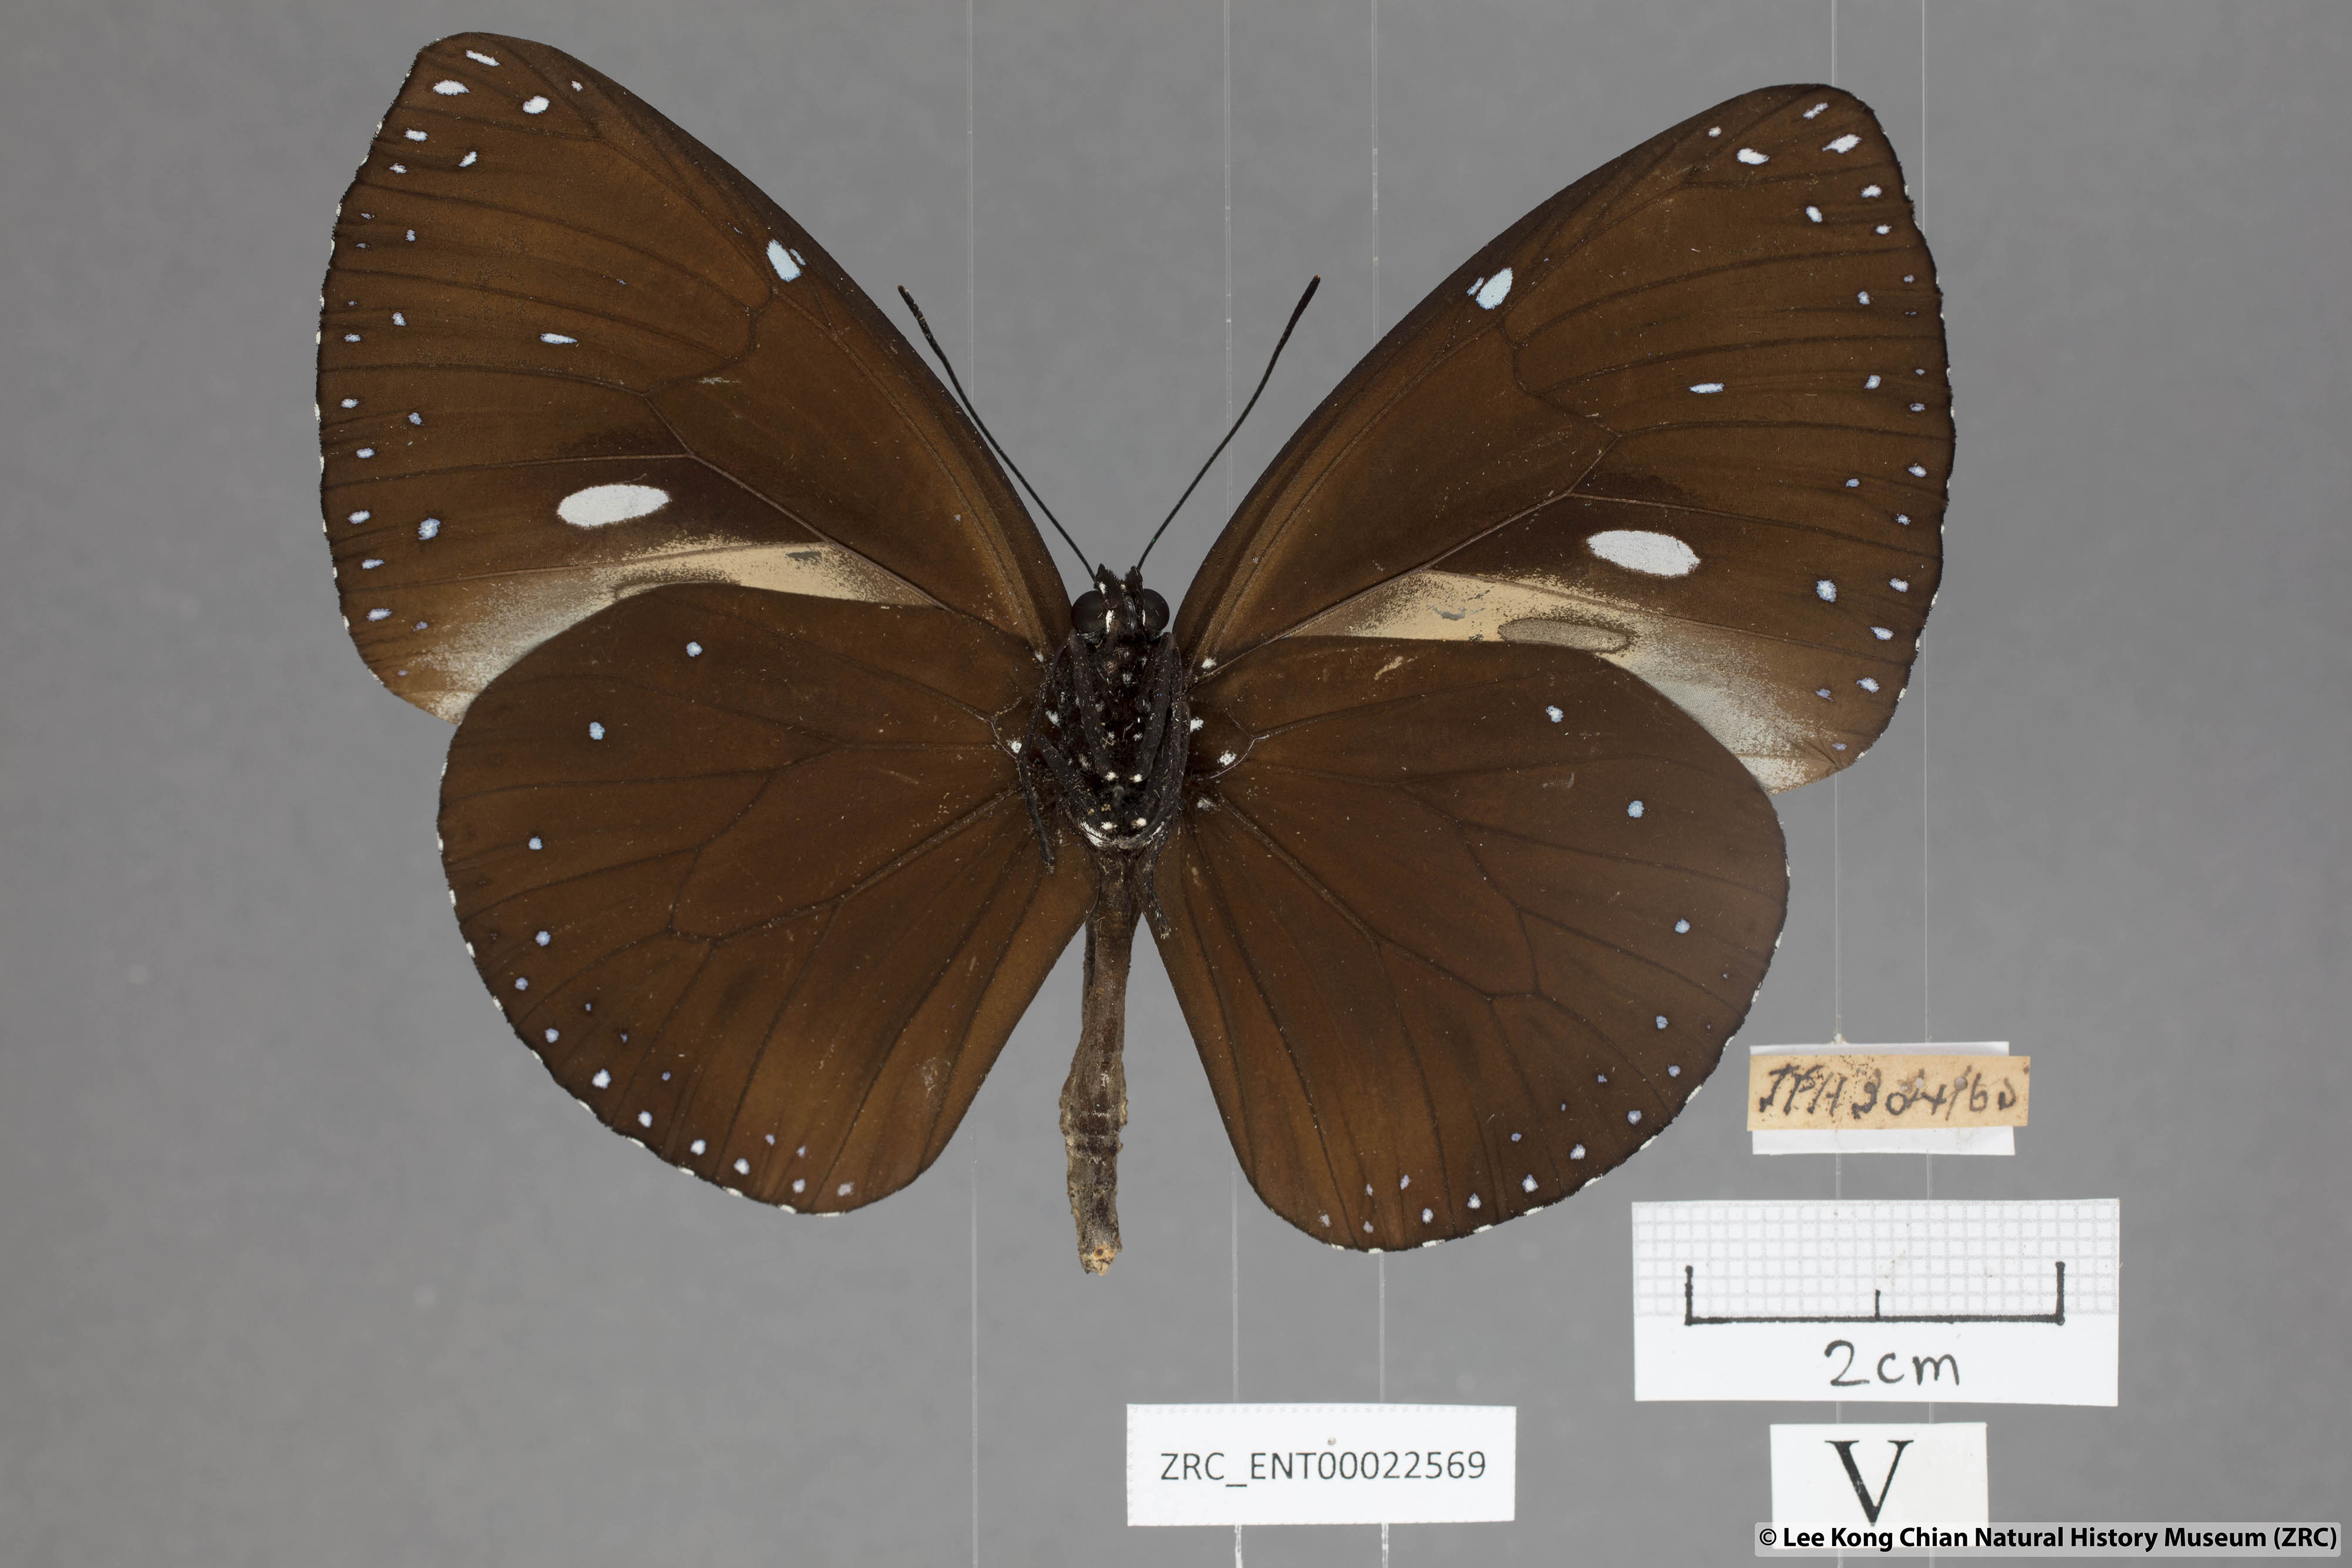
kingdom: Animalia
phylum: Arthropoda
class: Insecta
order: Lepidoptera
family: Nymphalidae
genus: Euploea
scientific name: Euploea eunice
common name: Blue-banded king crow butterfly
